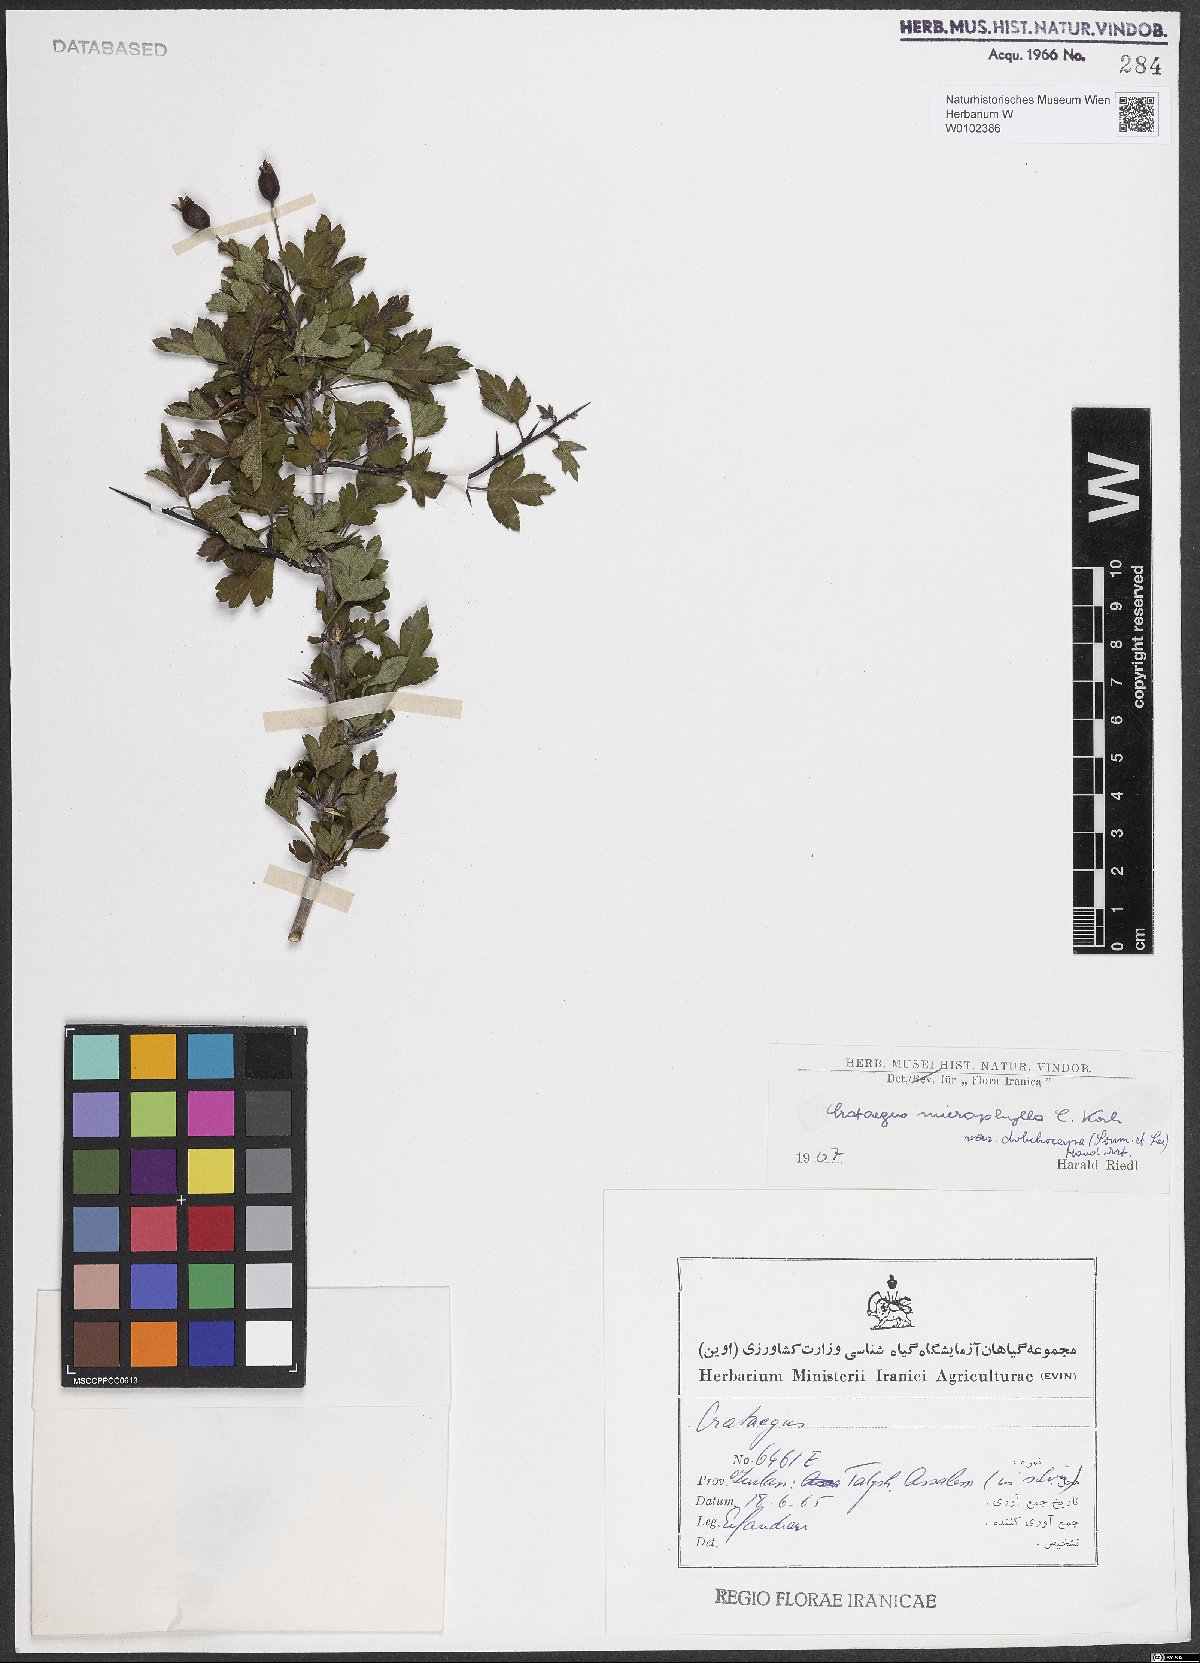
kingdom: Plantae
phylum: Tracheophyta
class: Magnoliopsida
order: Rosales
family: Rosaceae
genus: Crataegus
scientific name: Crataegus microphylla
